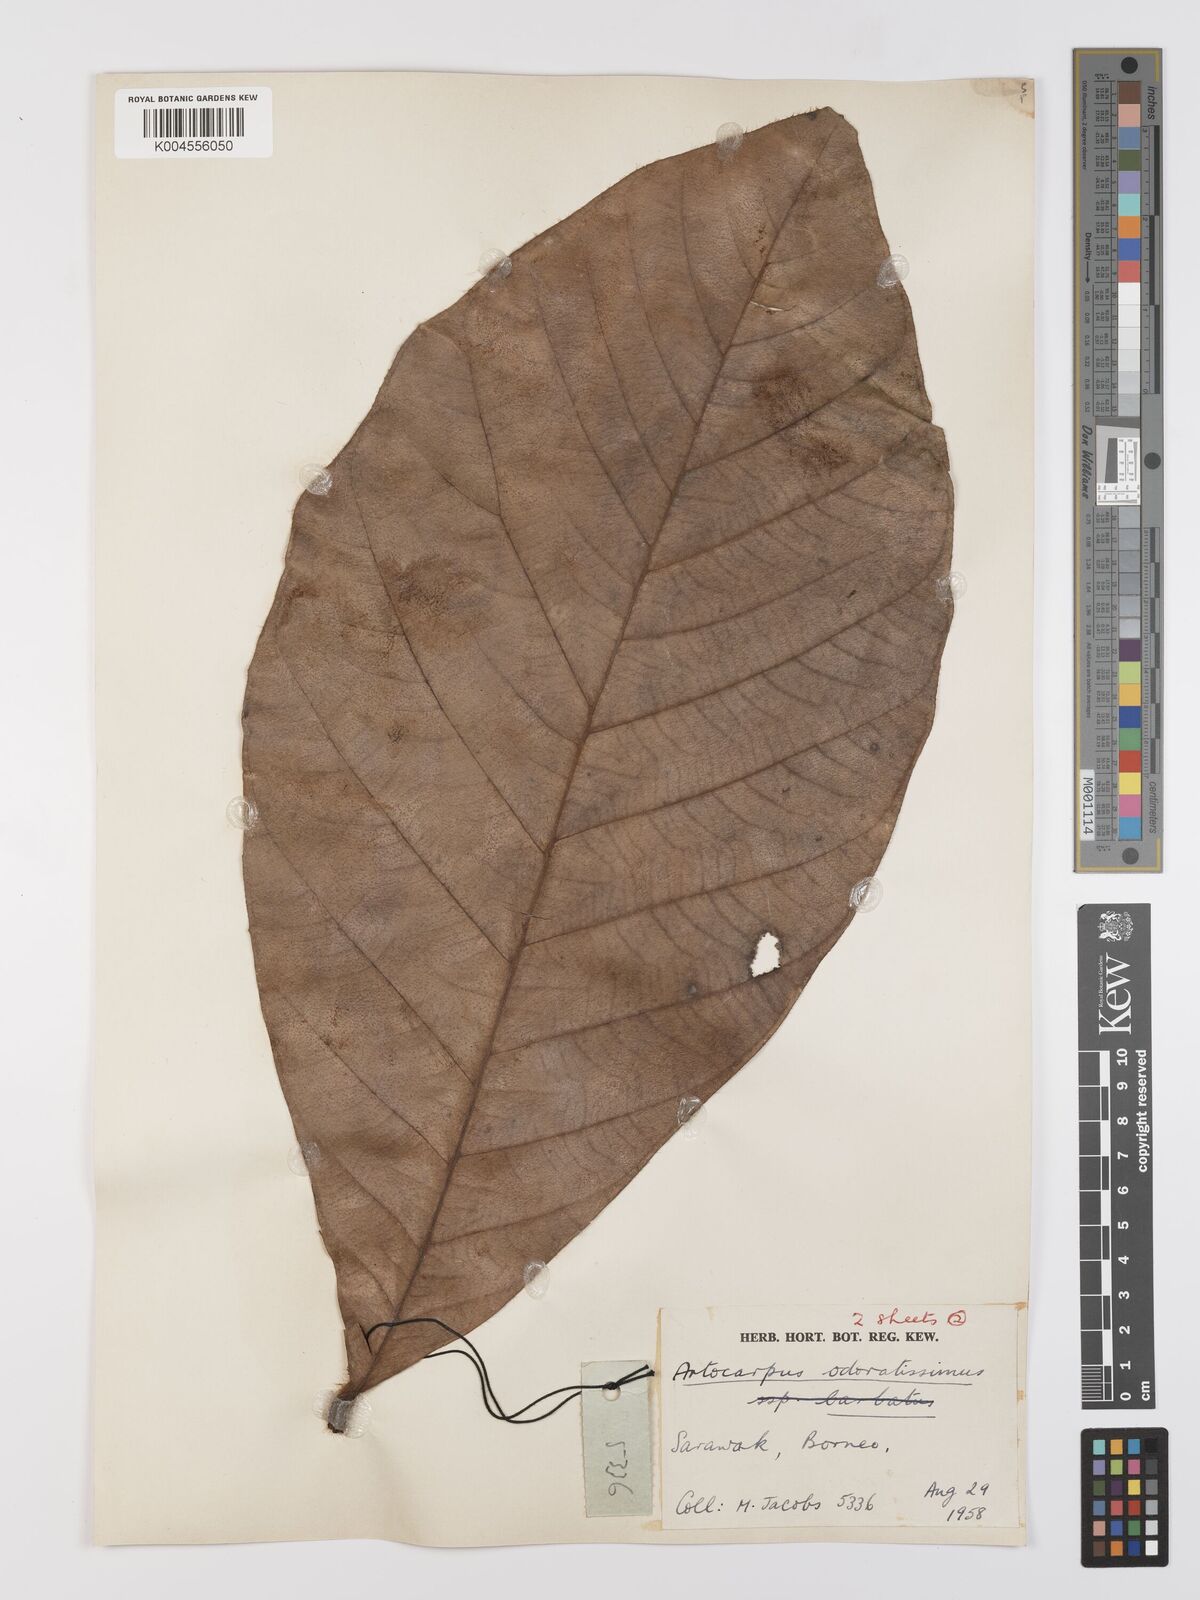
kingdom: Plantae
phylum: Tracheophyta
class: Magnoliopsida
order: Rosales
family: Moraceae
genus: Artocarpus
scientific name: Artocarpus odoratissimus
